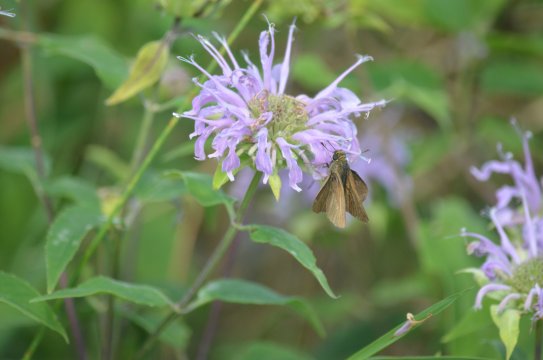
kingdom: Animalia
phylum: Arthropoda
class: Insecta
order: Lepidoptera
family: Hesperiidae
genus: Euphyes
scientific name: Euphyes vestris
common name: Dun Skipper
